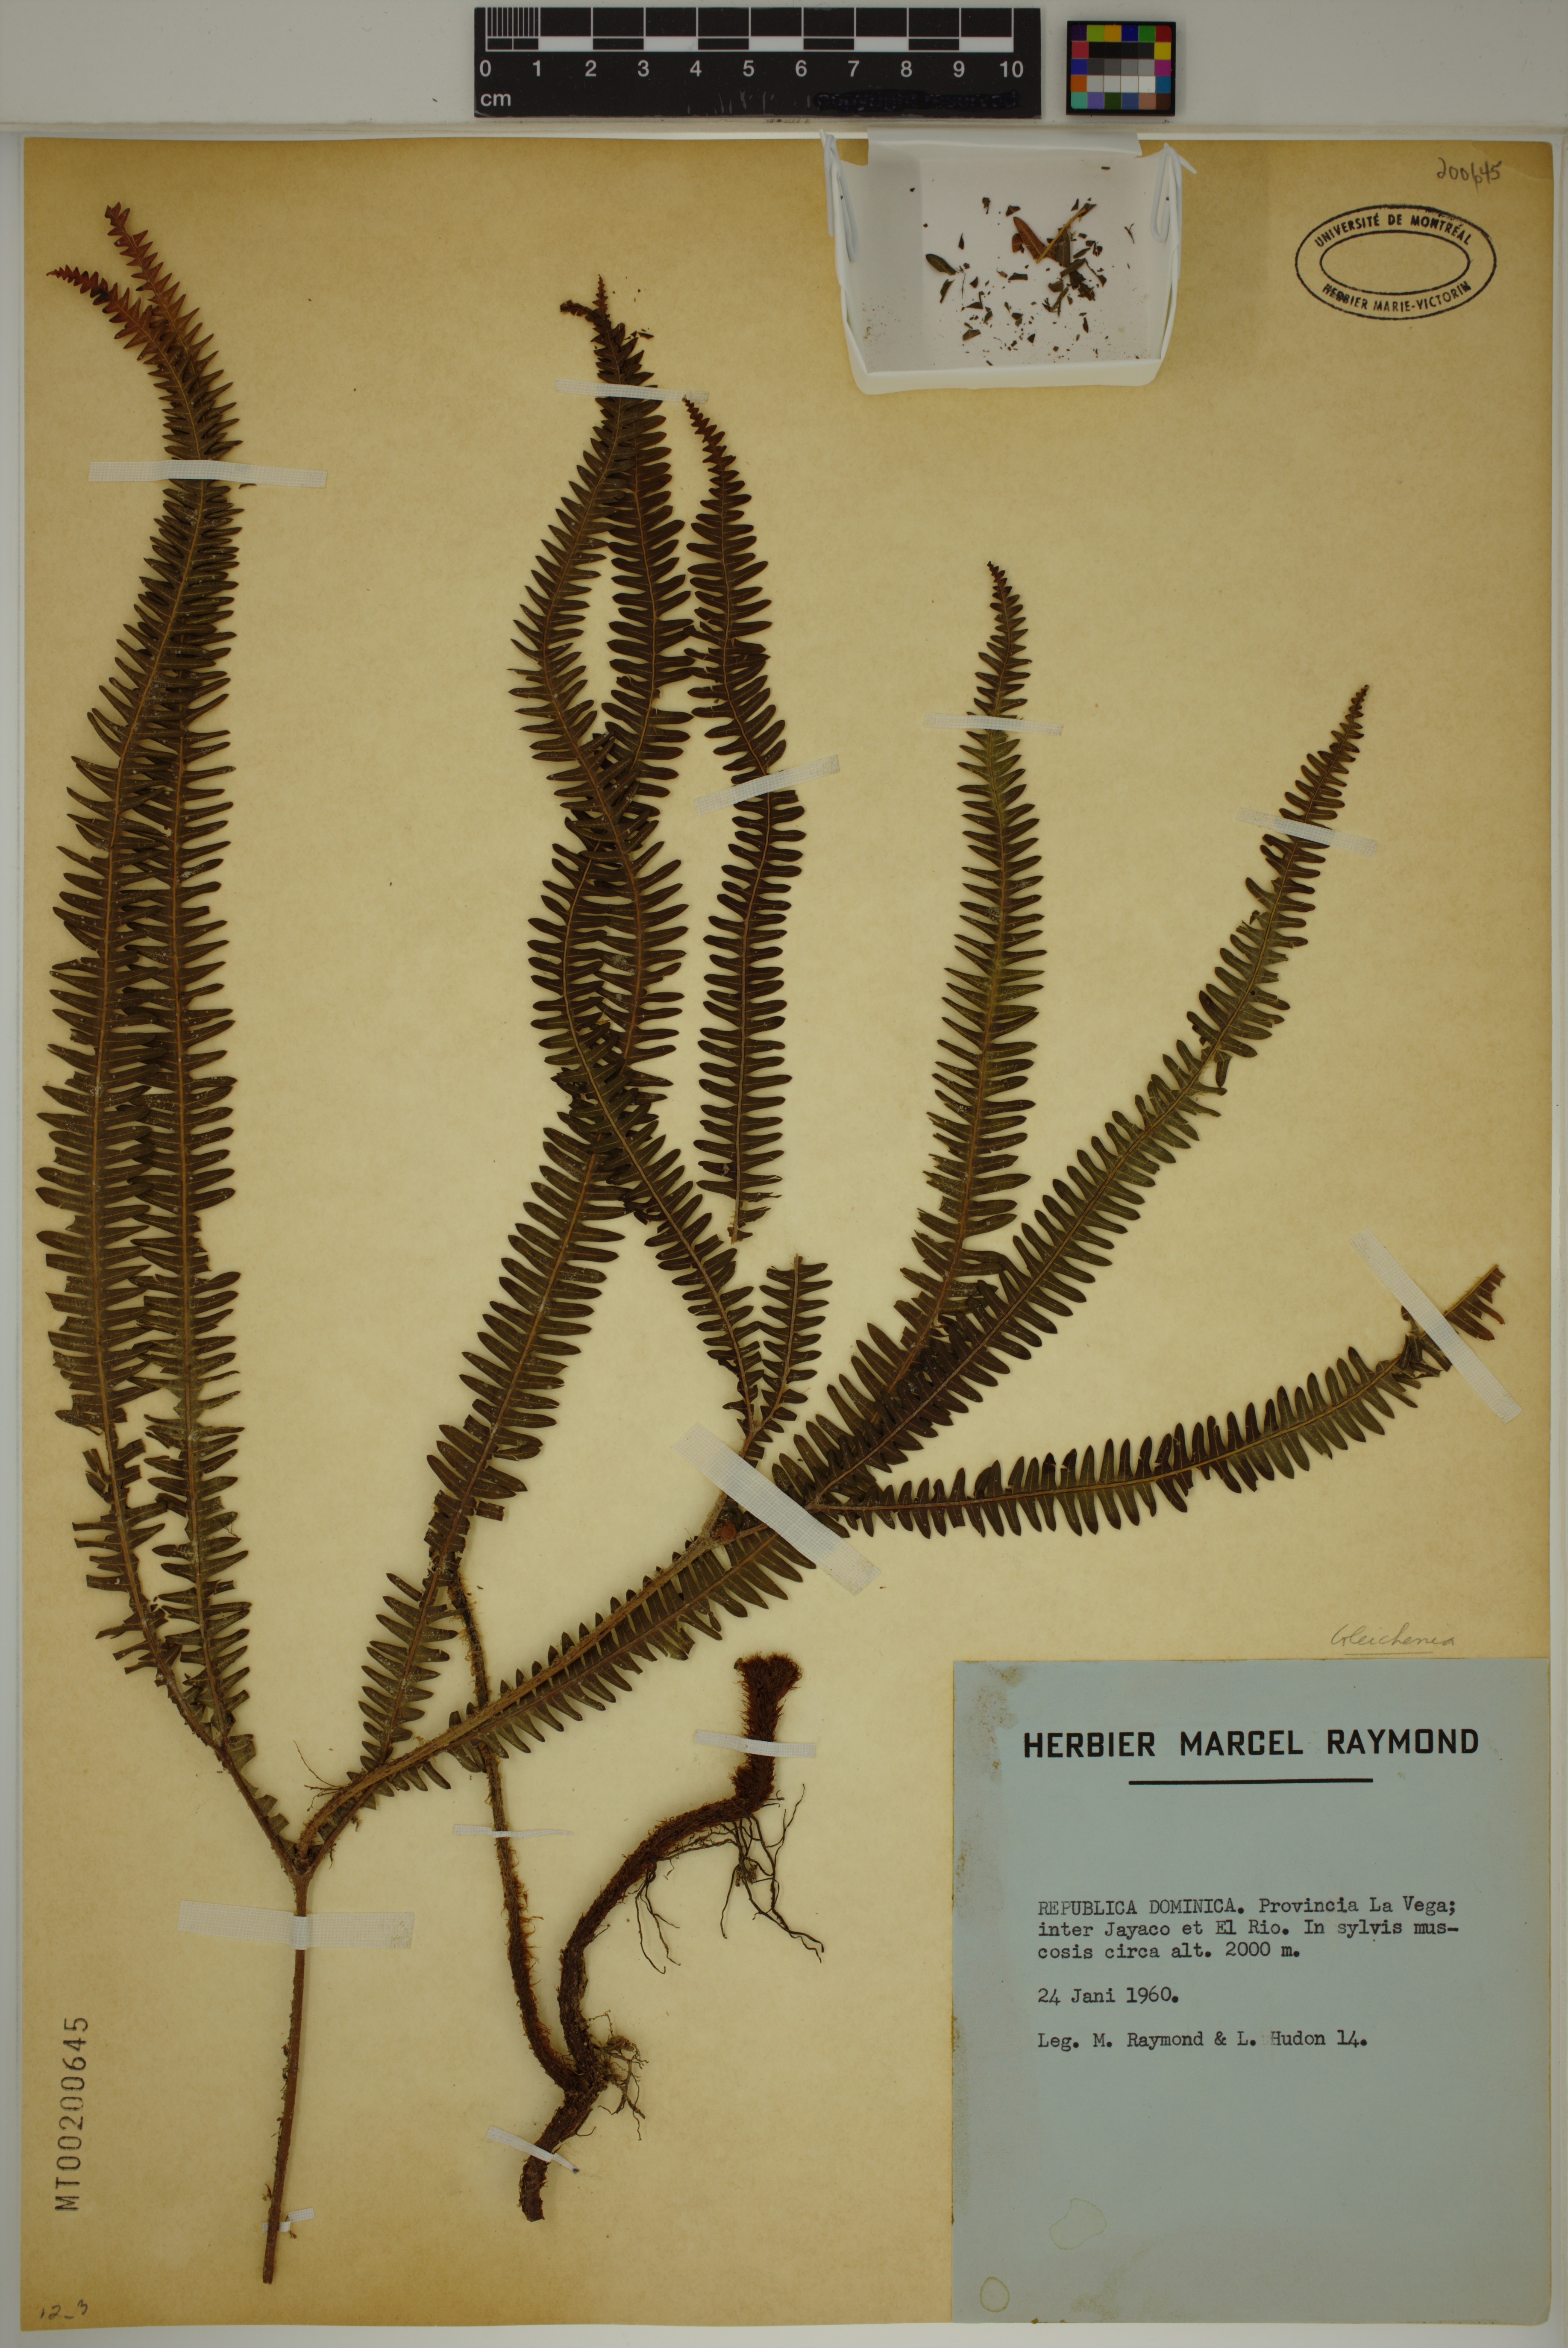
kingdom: Plantae
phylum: Tracheophyta
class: Polypodiopsida
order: Gleicheniales
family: Gleicheniaceae
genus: Gleichenia
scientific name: Gleichenia
